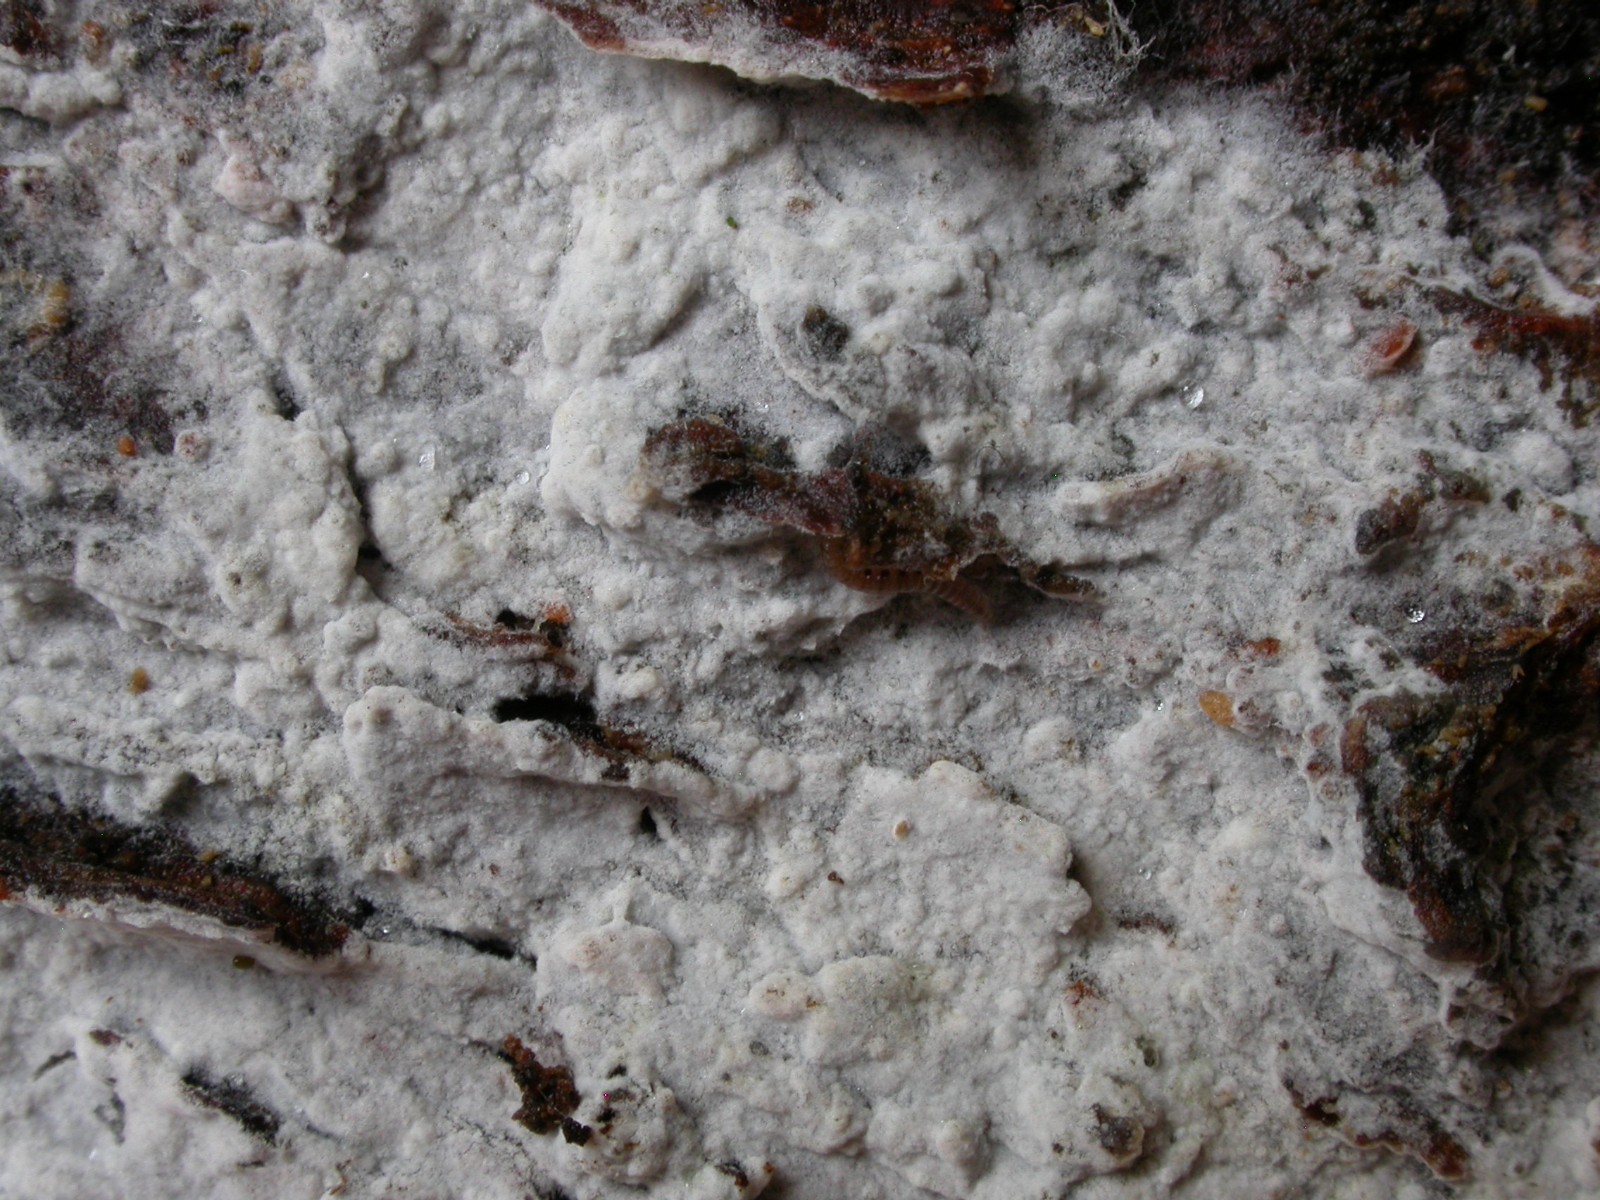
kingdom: Fungi
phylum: Basidiomycota
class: Agaricomycetes
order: Cantharellales
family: Botryobasidiaceae
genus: Botryobasidium
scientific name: Botryobasidium subcoronatum
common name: almindelig spindhinde
